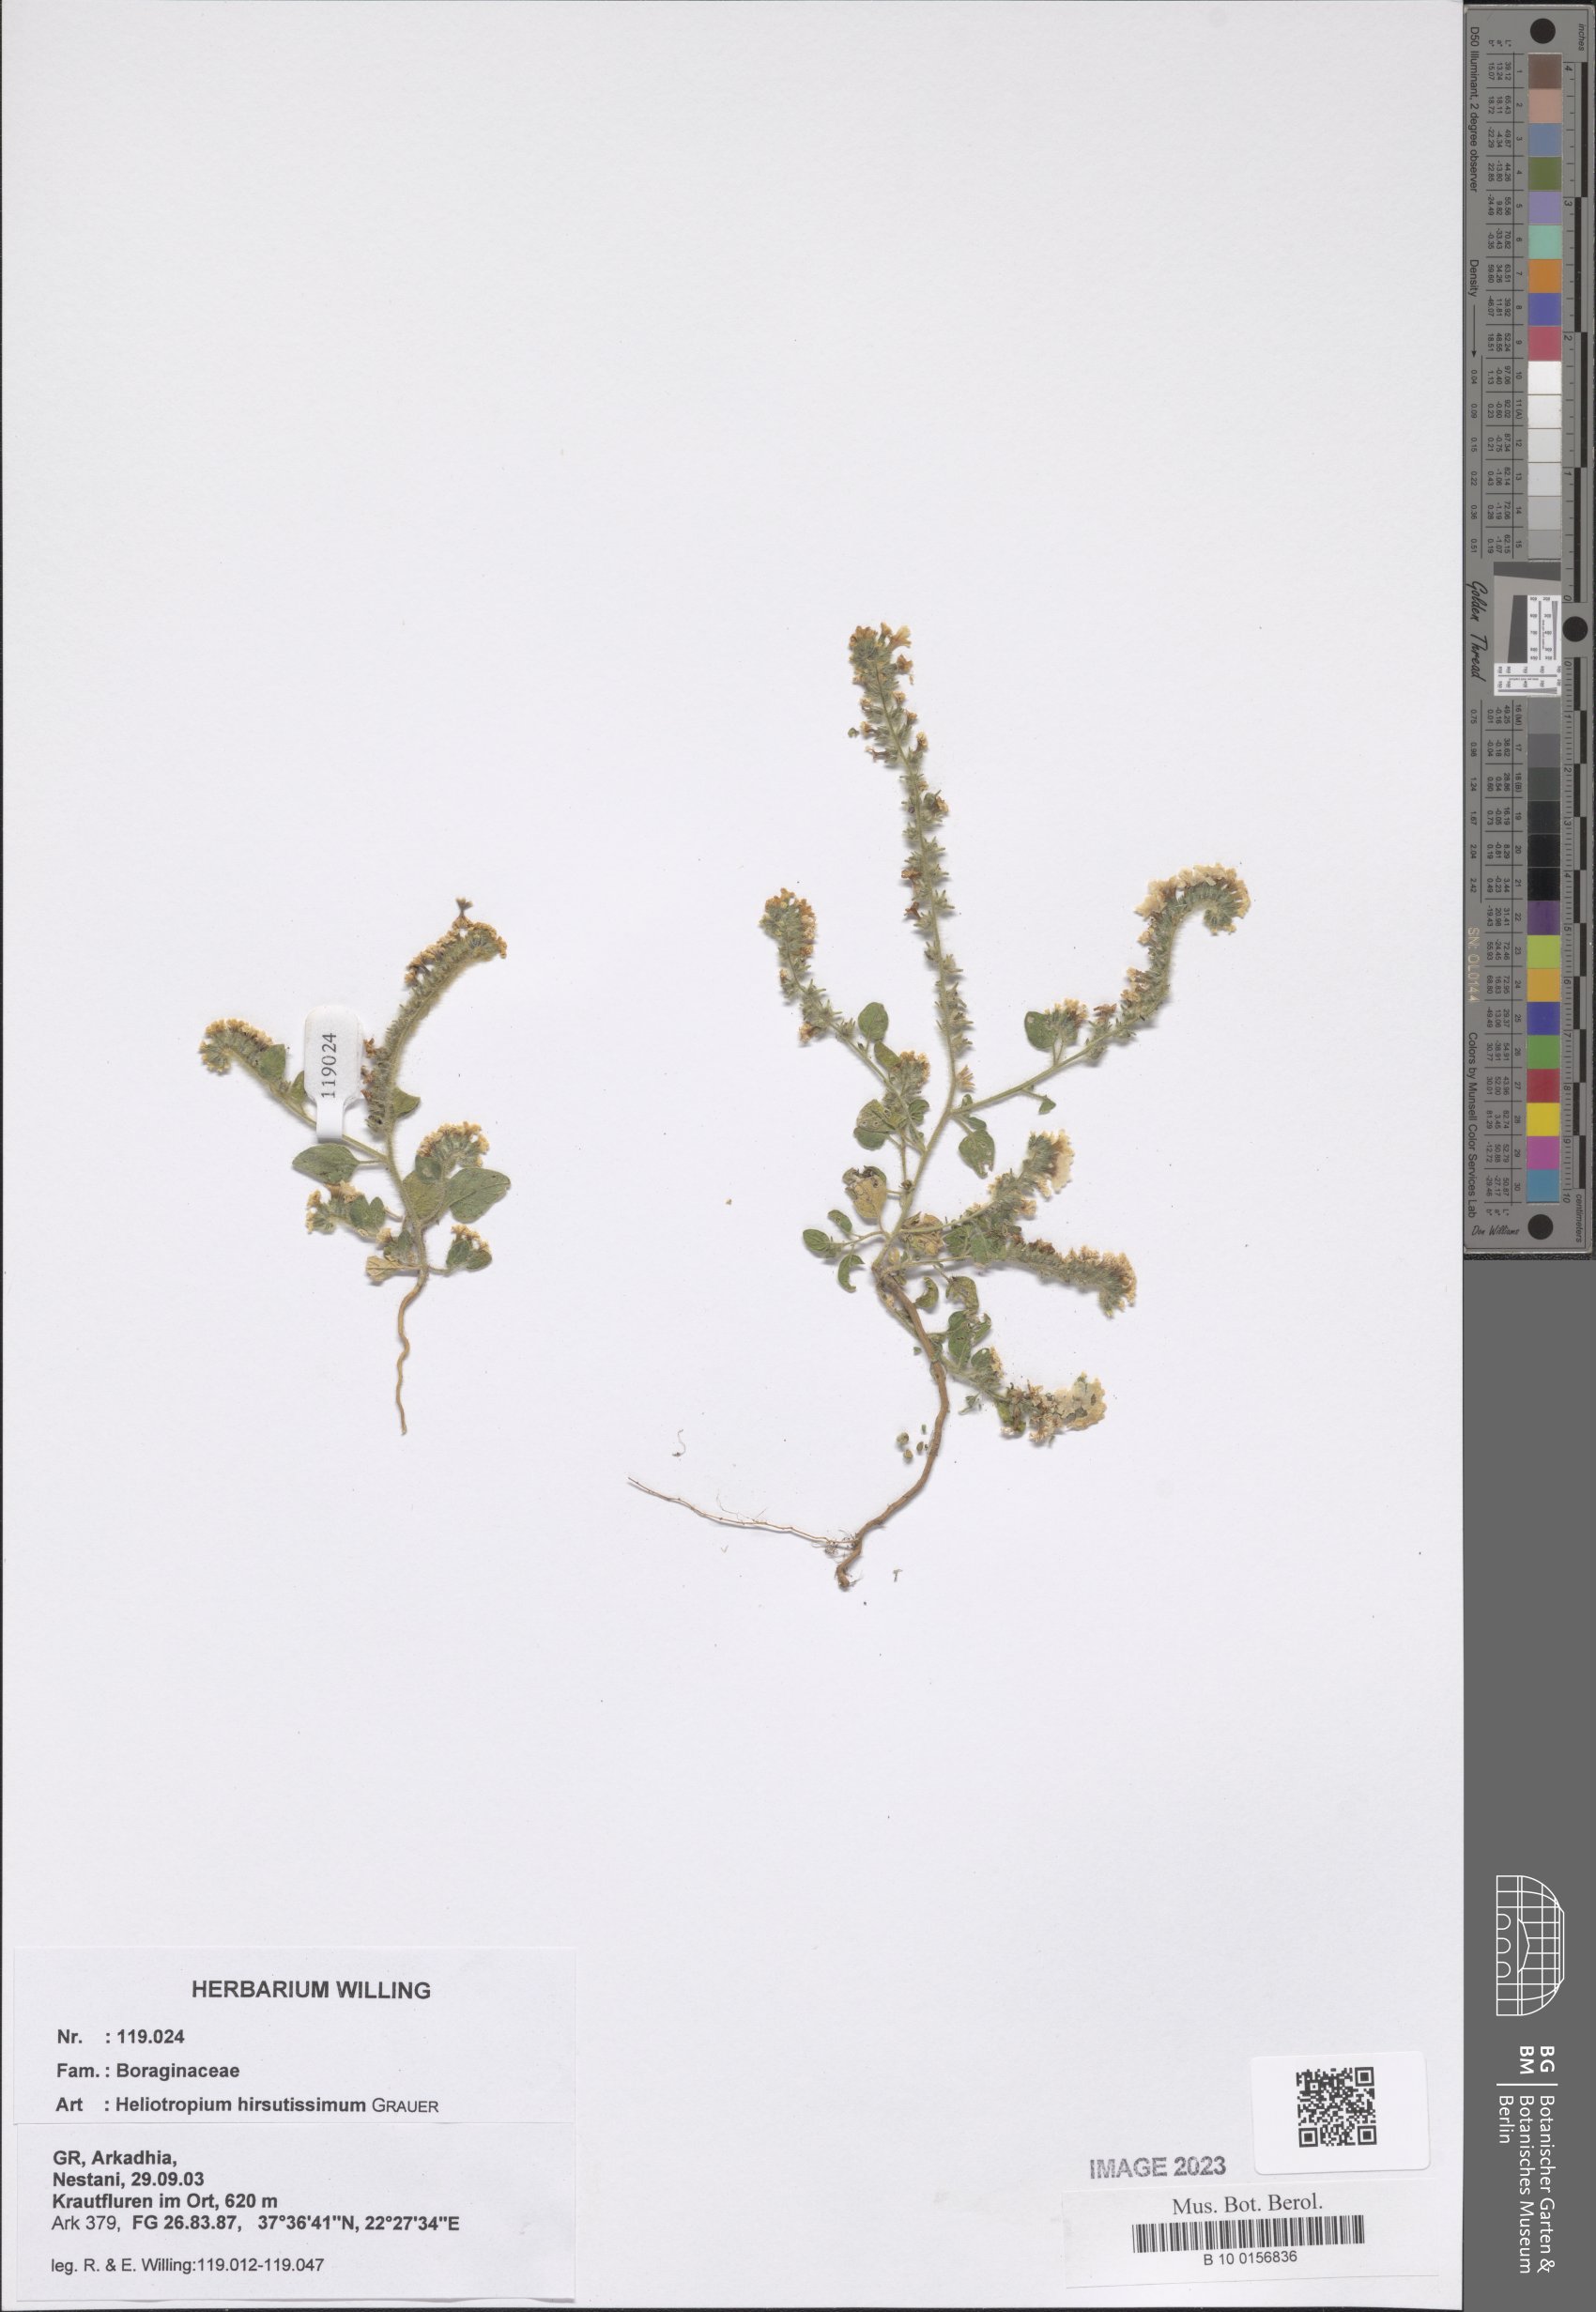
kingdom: Plantae
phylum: Tracheophyta
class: Magnoliopsida
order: Boraginales
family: Heliotropiaceae
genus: Heliotropium
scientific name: Heliotropium hirsutissimum
